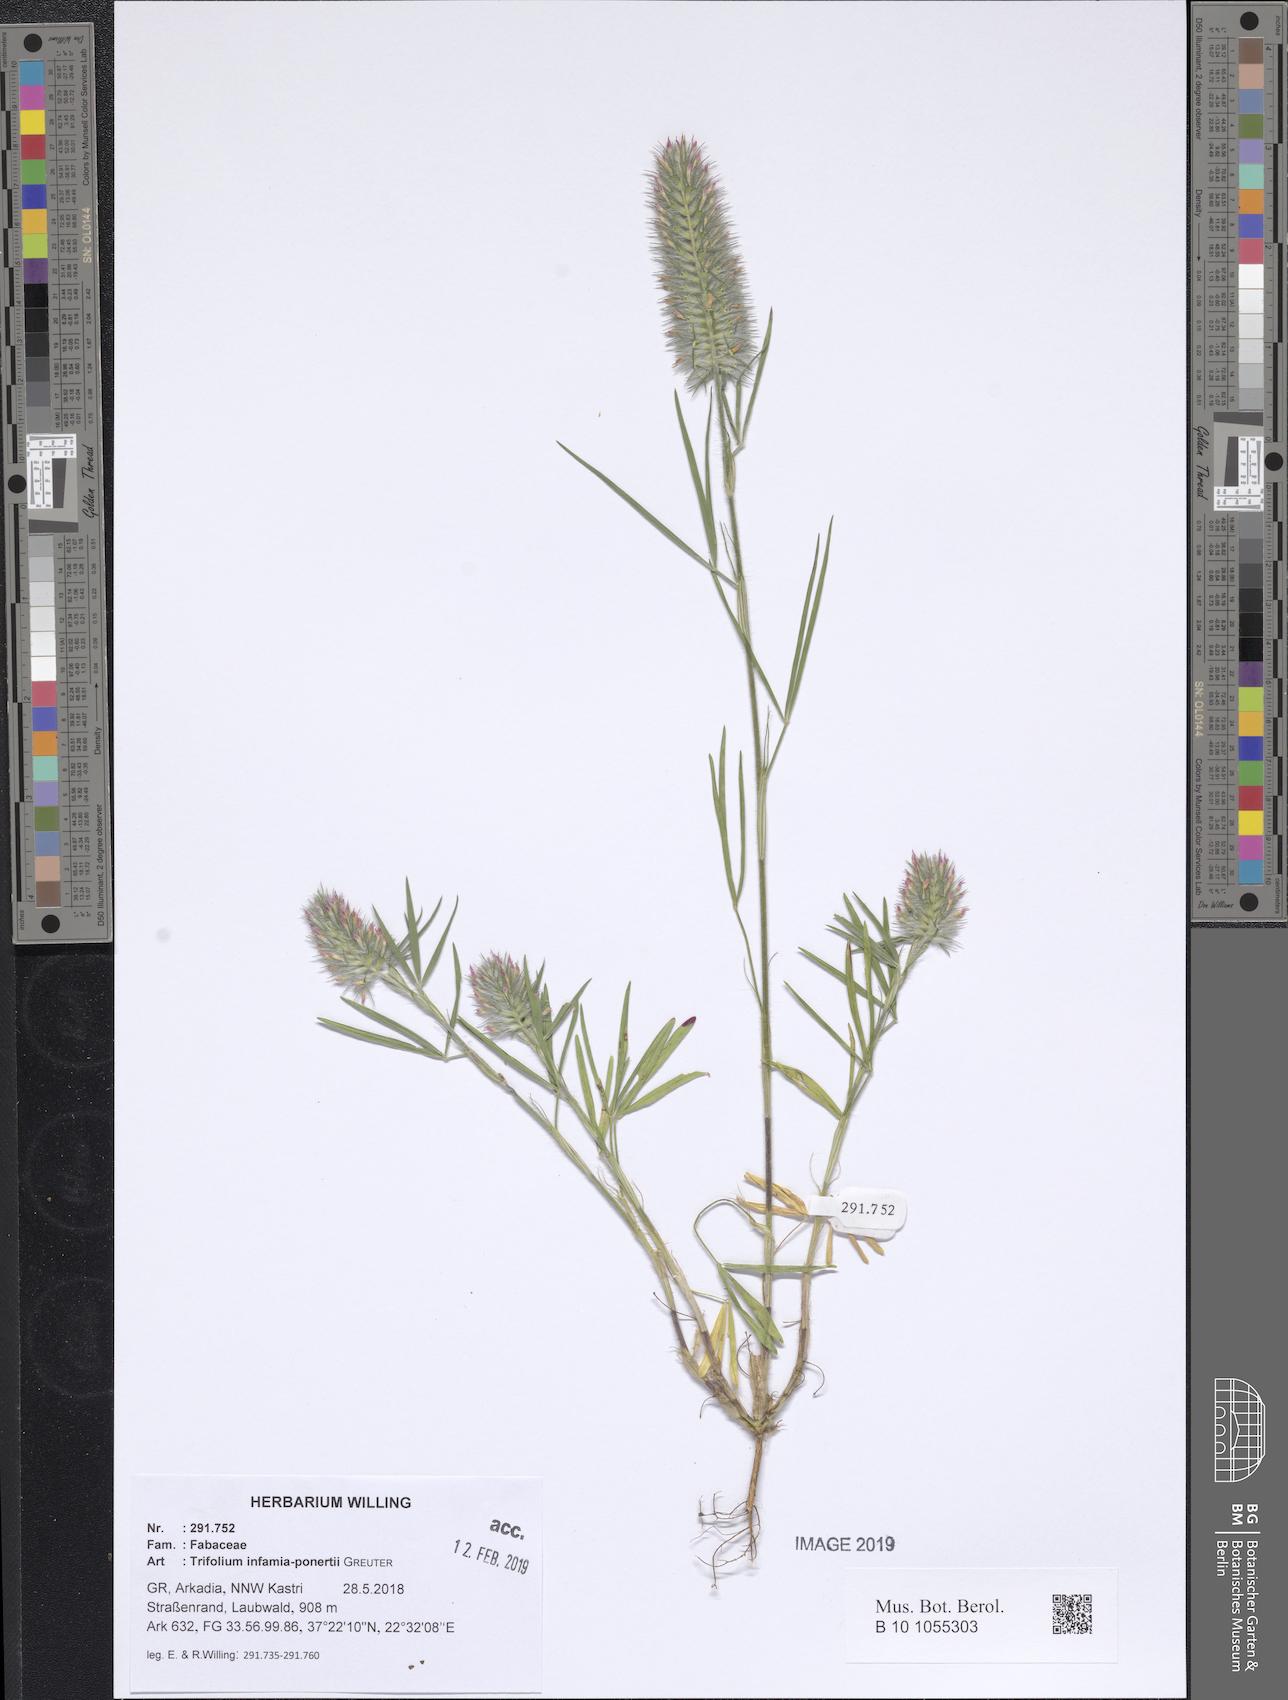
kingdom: Plantae
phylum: Tracheophyta
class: Magnoliopsida
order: Fabales
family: Fabaceae
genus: Trifolium
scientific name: Trifolium infamia-ponertii
